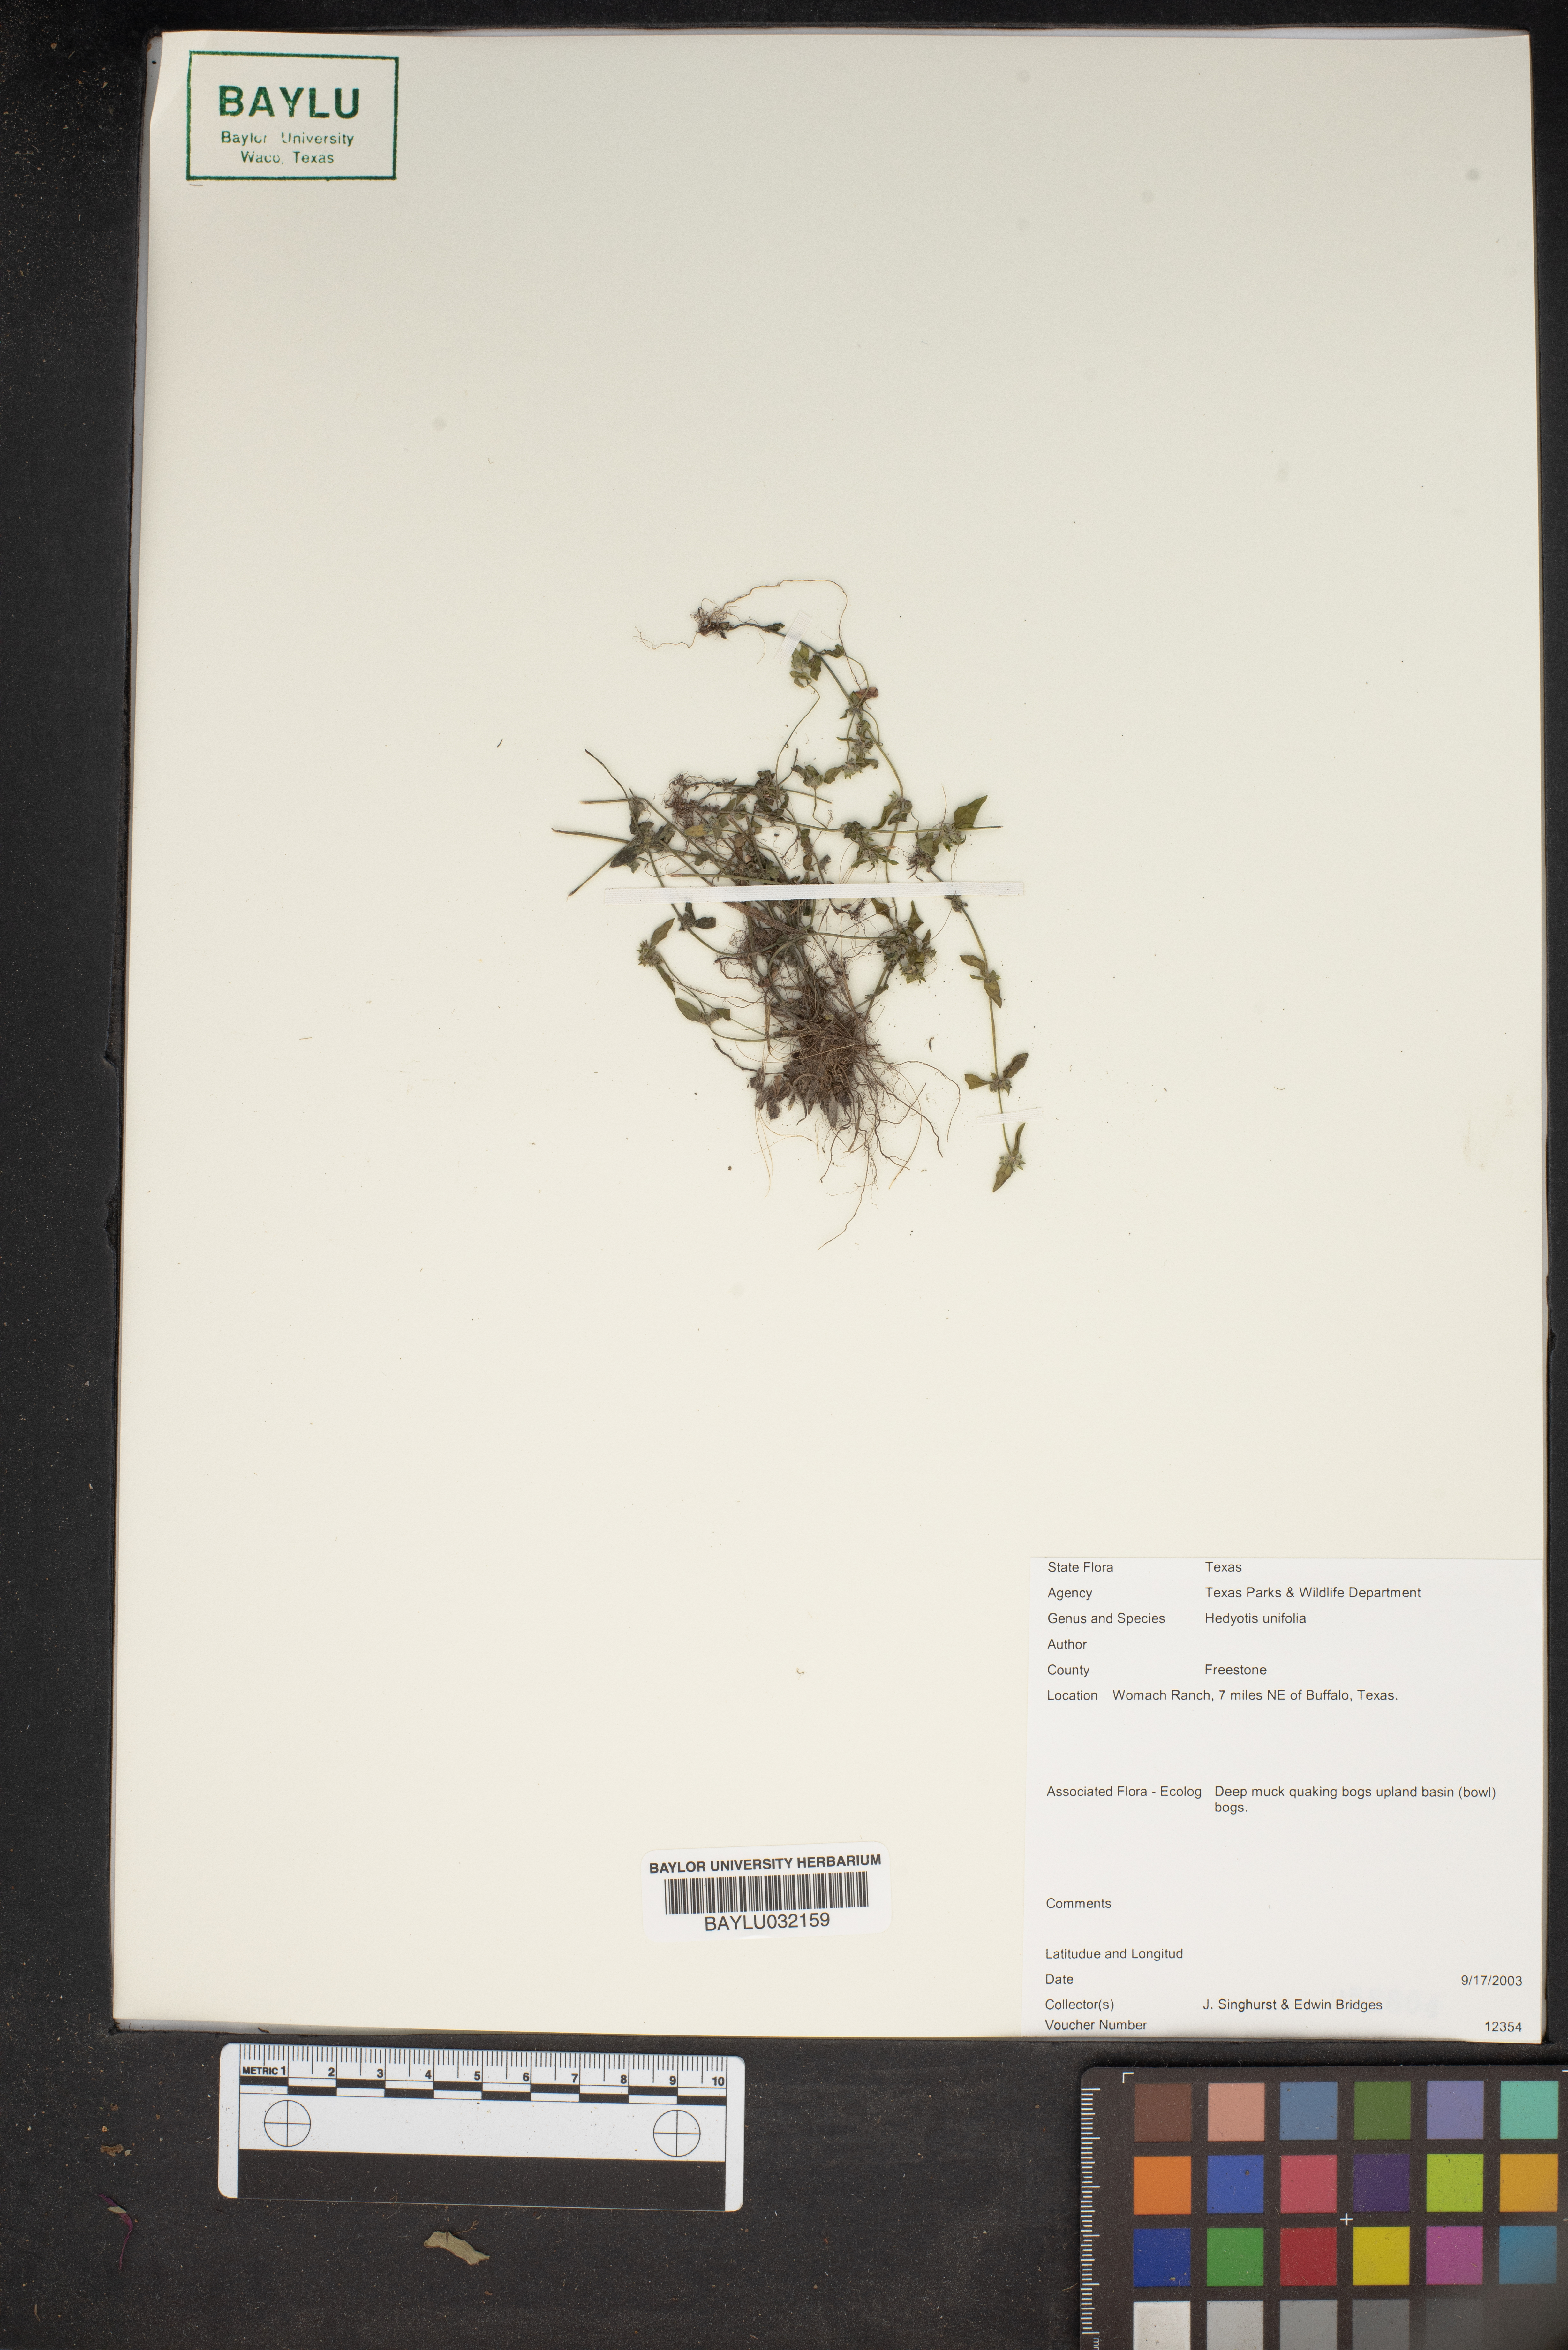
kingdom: Plantae
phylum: Tracheophyta
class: Magnoliopsida
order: Gentianales
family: Rubiaceae
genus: Edrastima
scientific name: Edrastima uniflora
